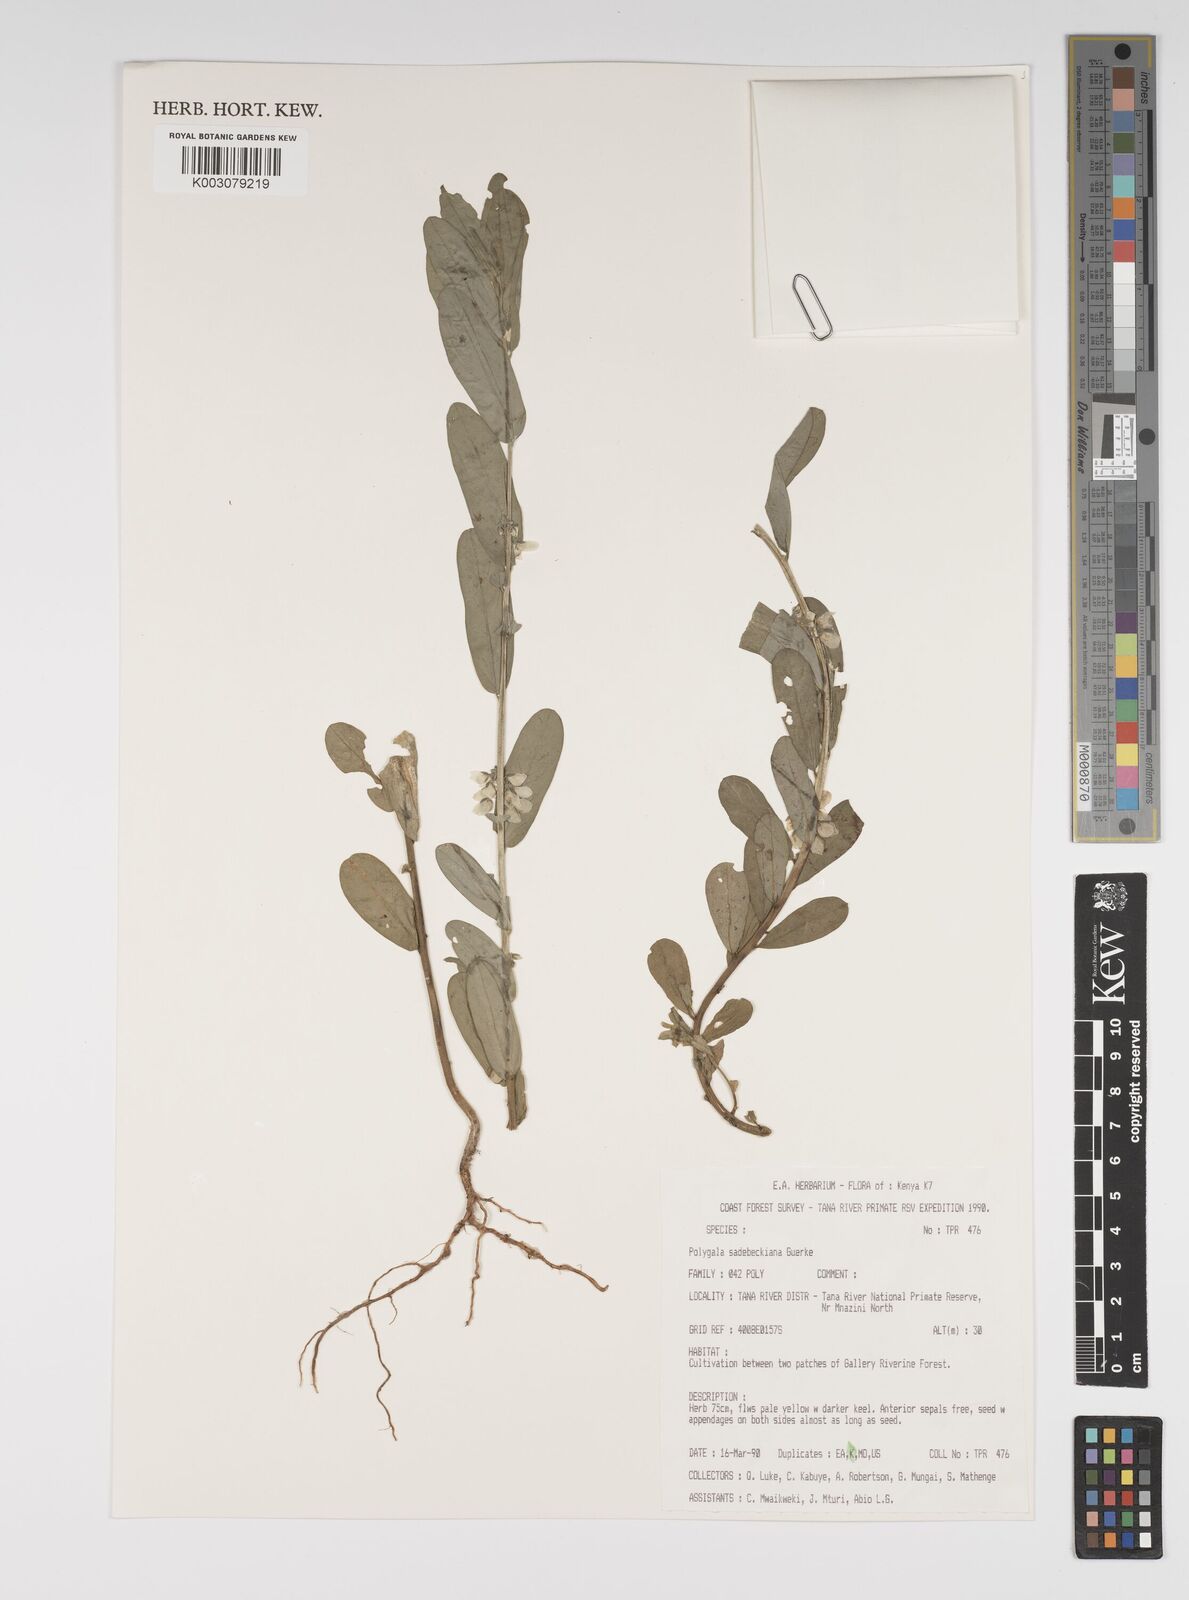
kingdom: Plantae
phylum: Tracheophyta
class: Magnoliopsida
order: Fabales
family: Polygalaceae
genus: Polygala
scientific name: Polygala sadebeckiana
